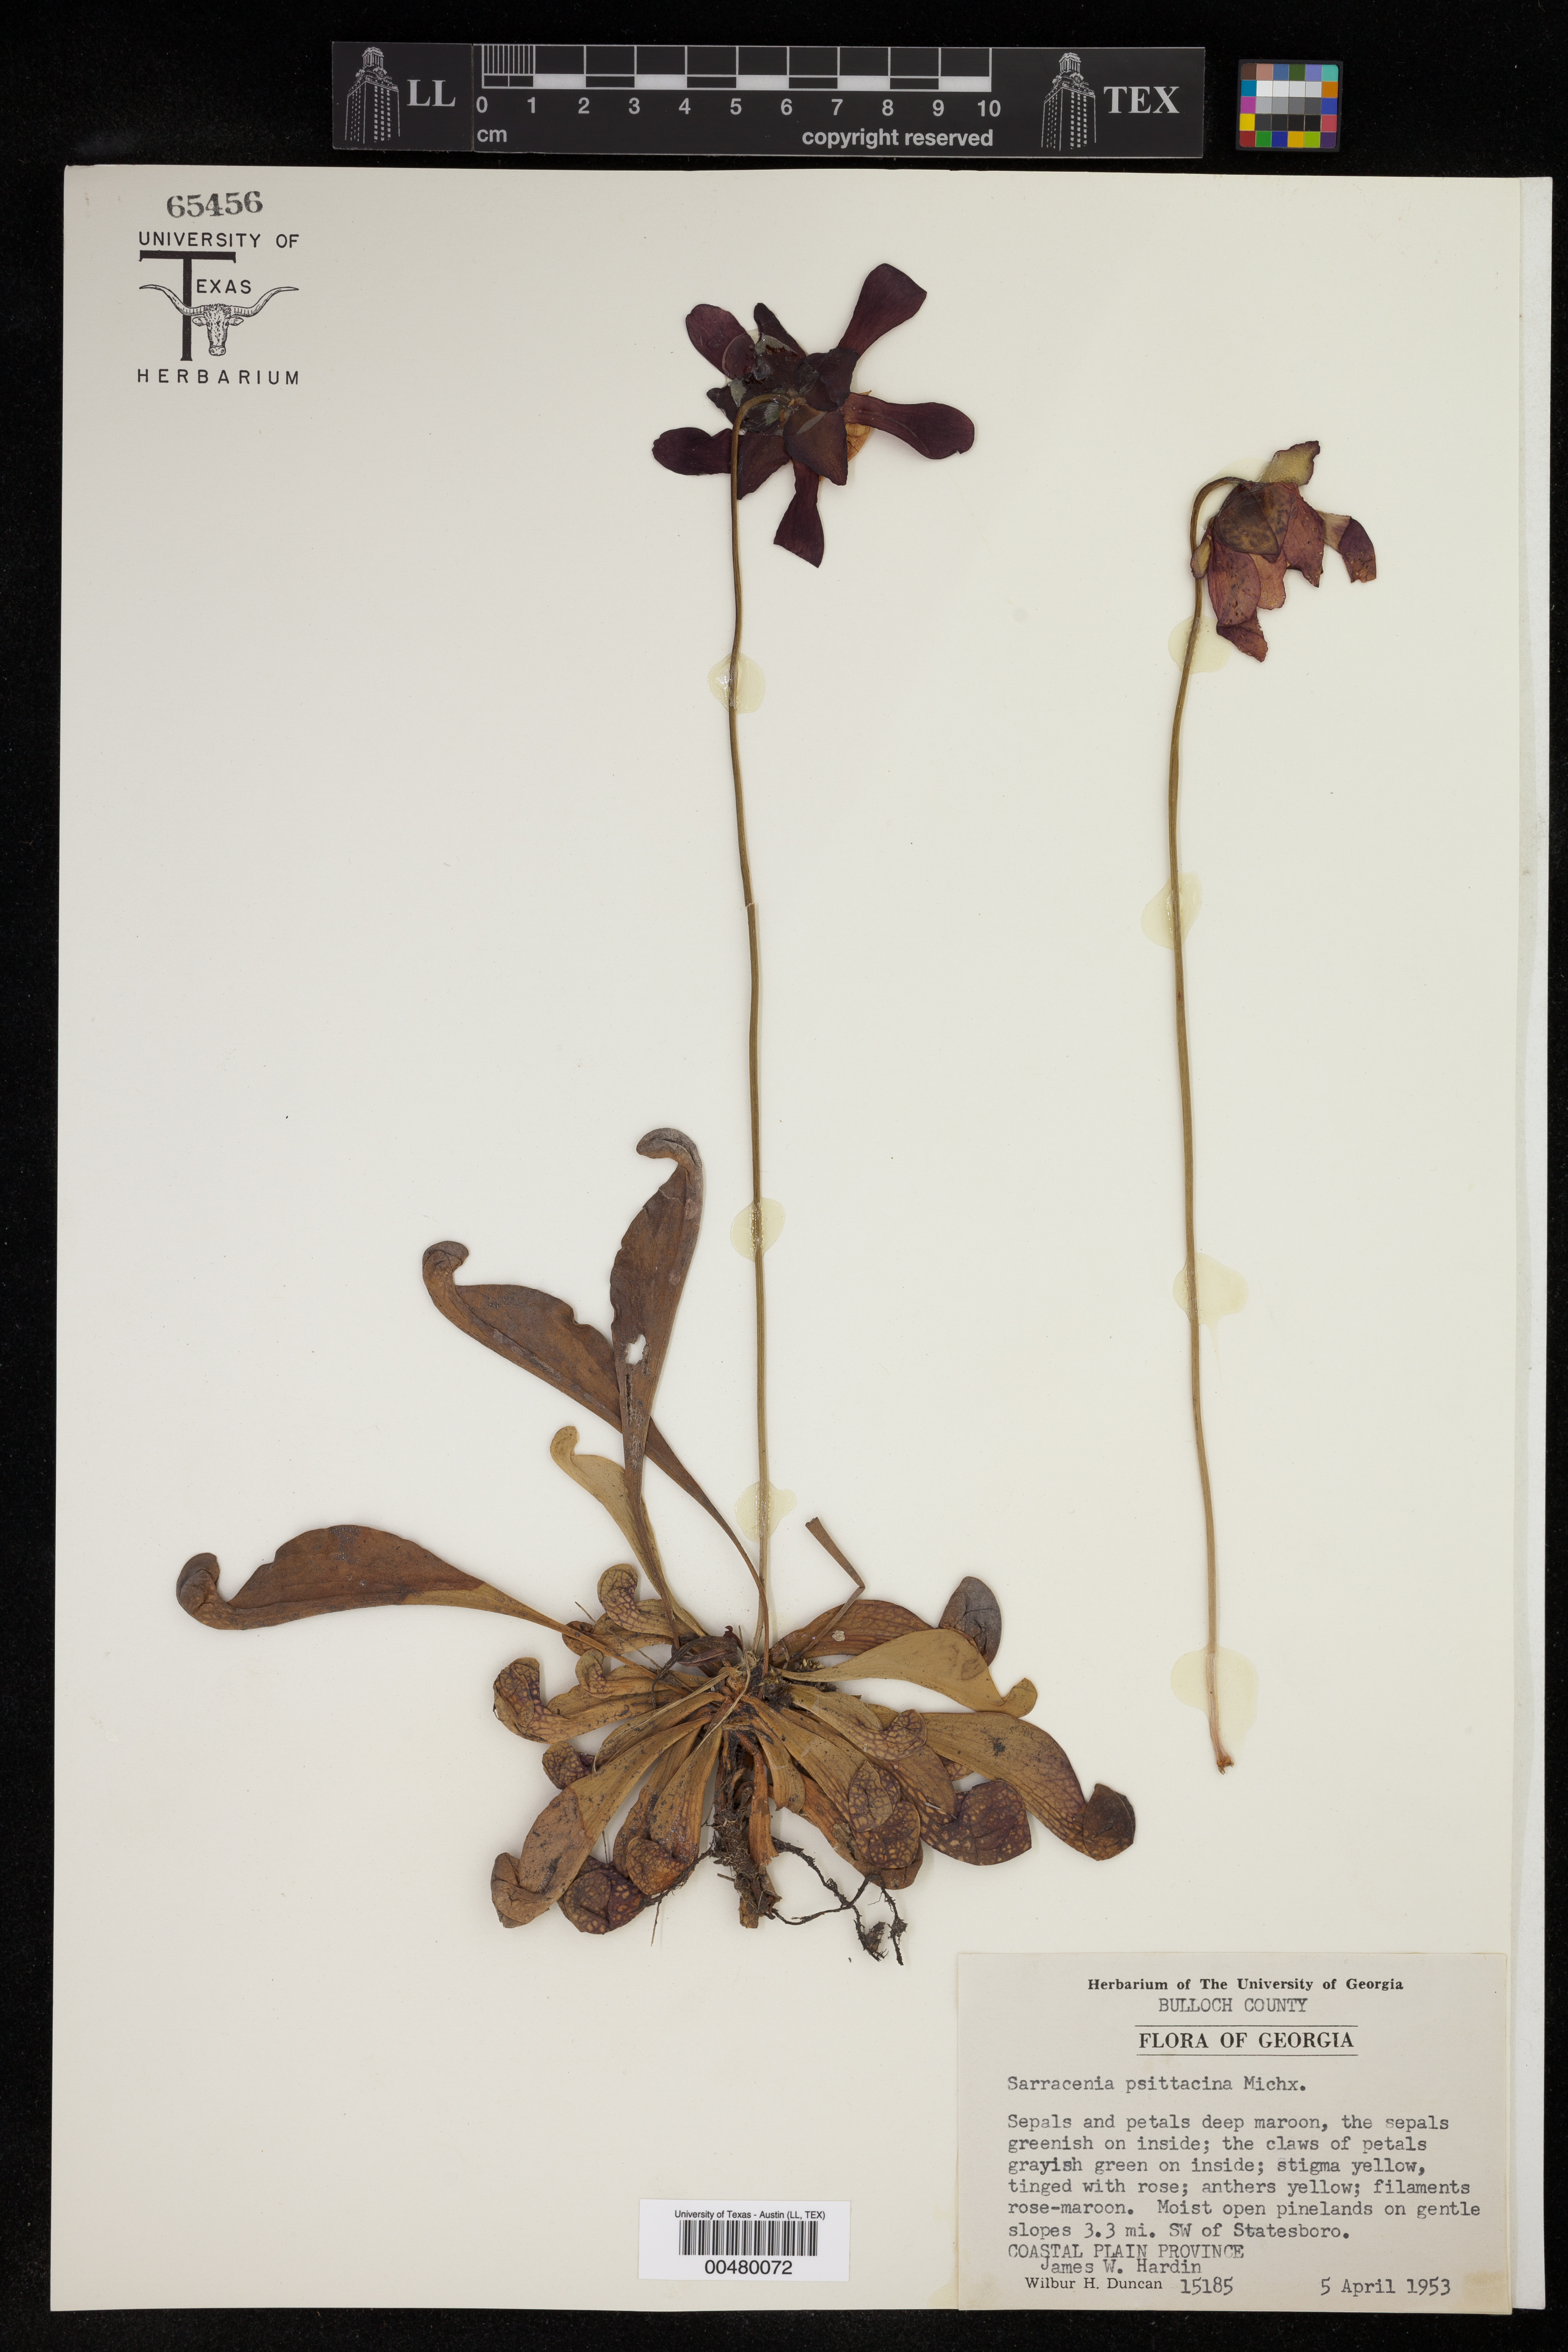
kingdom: Plantae
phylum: Tracheophyta
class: Magnoliopsida
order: Ericales
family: Sarraceniaceae
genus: Sarracenia
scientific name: Sarracenia psittacina
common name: Parrot pitcherplant
